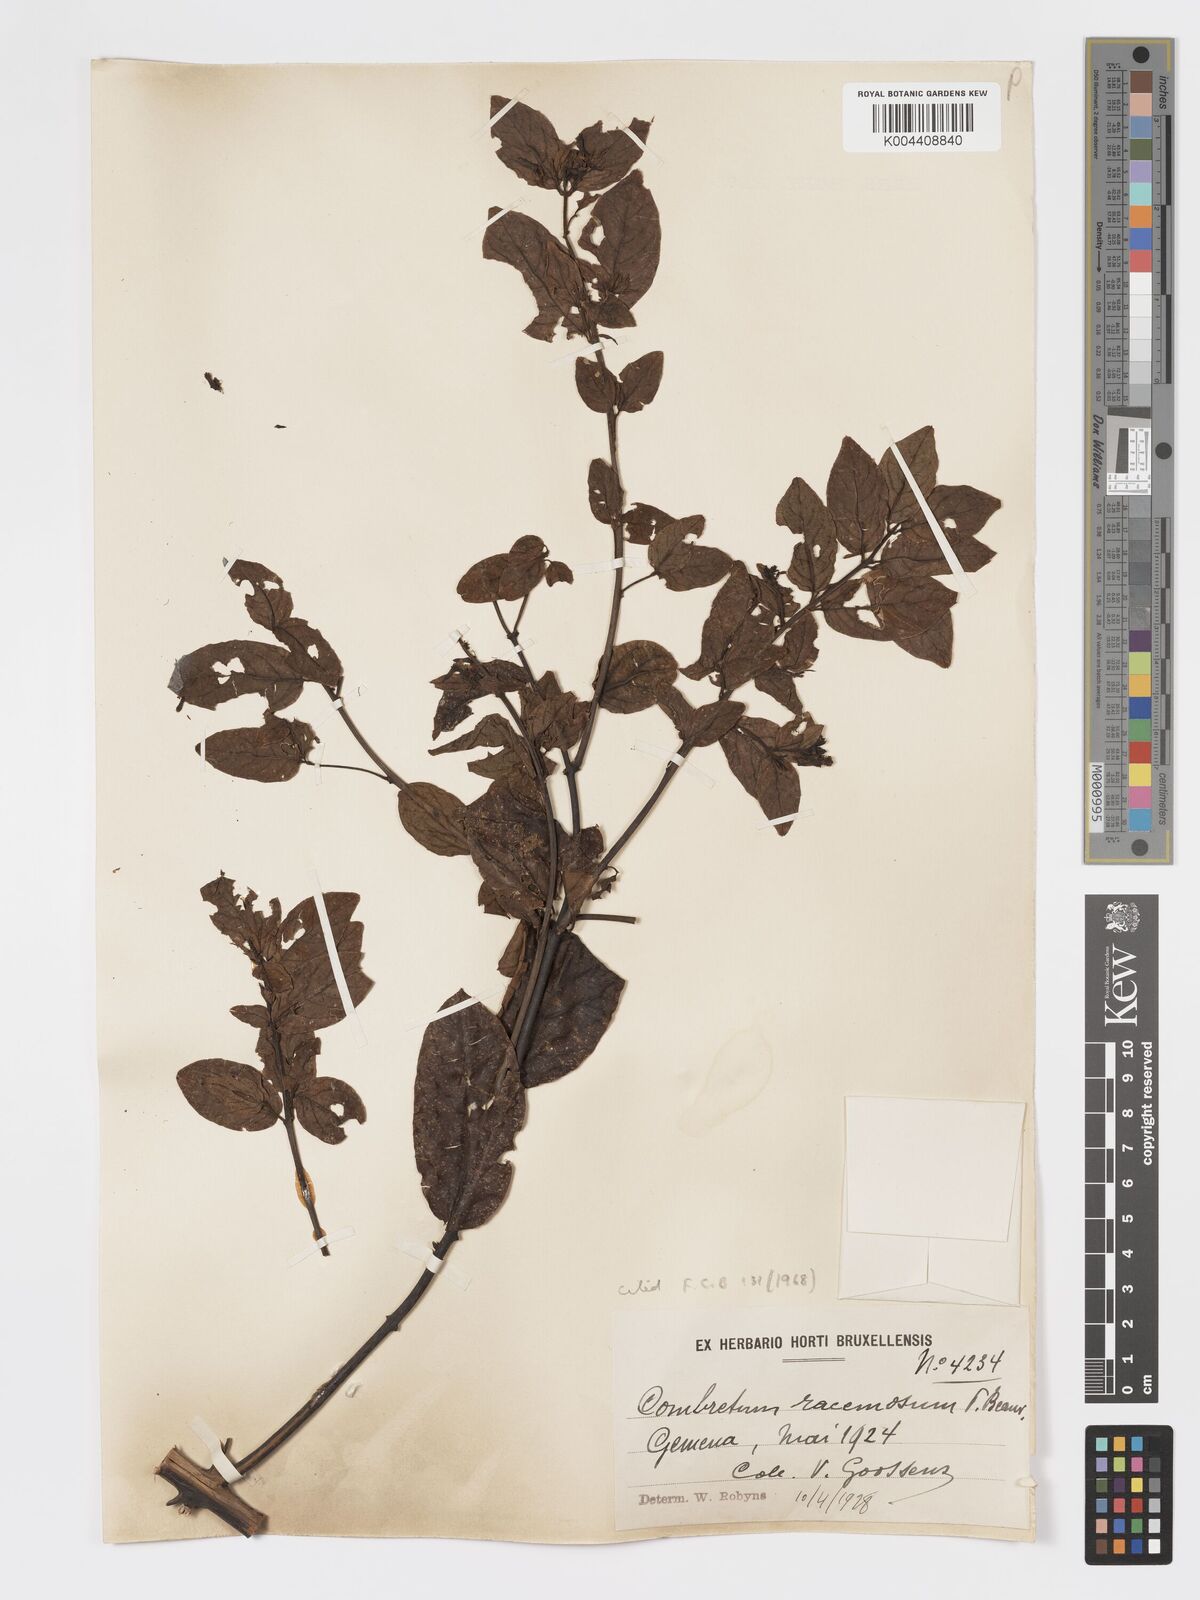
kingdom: Plantae
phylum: Tracheophyta
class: Magnoliopsida
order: Myrtales
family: Combretaceae
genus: Combretum
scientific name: Combretum racemosum
